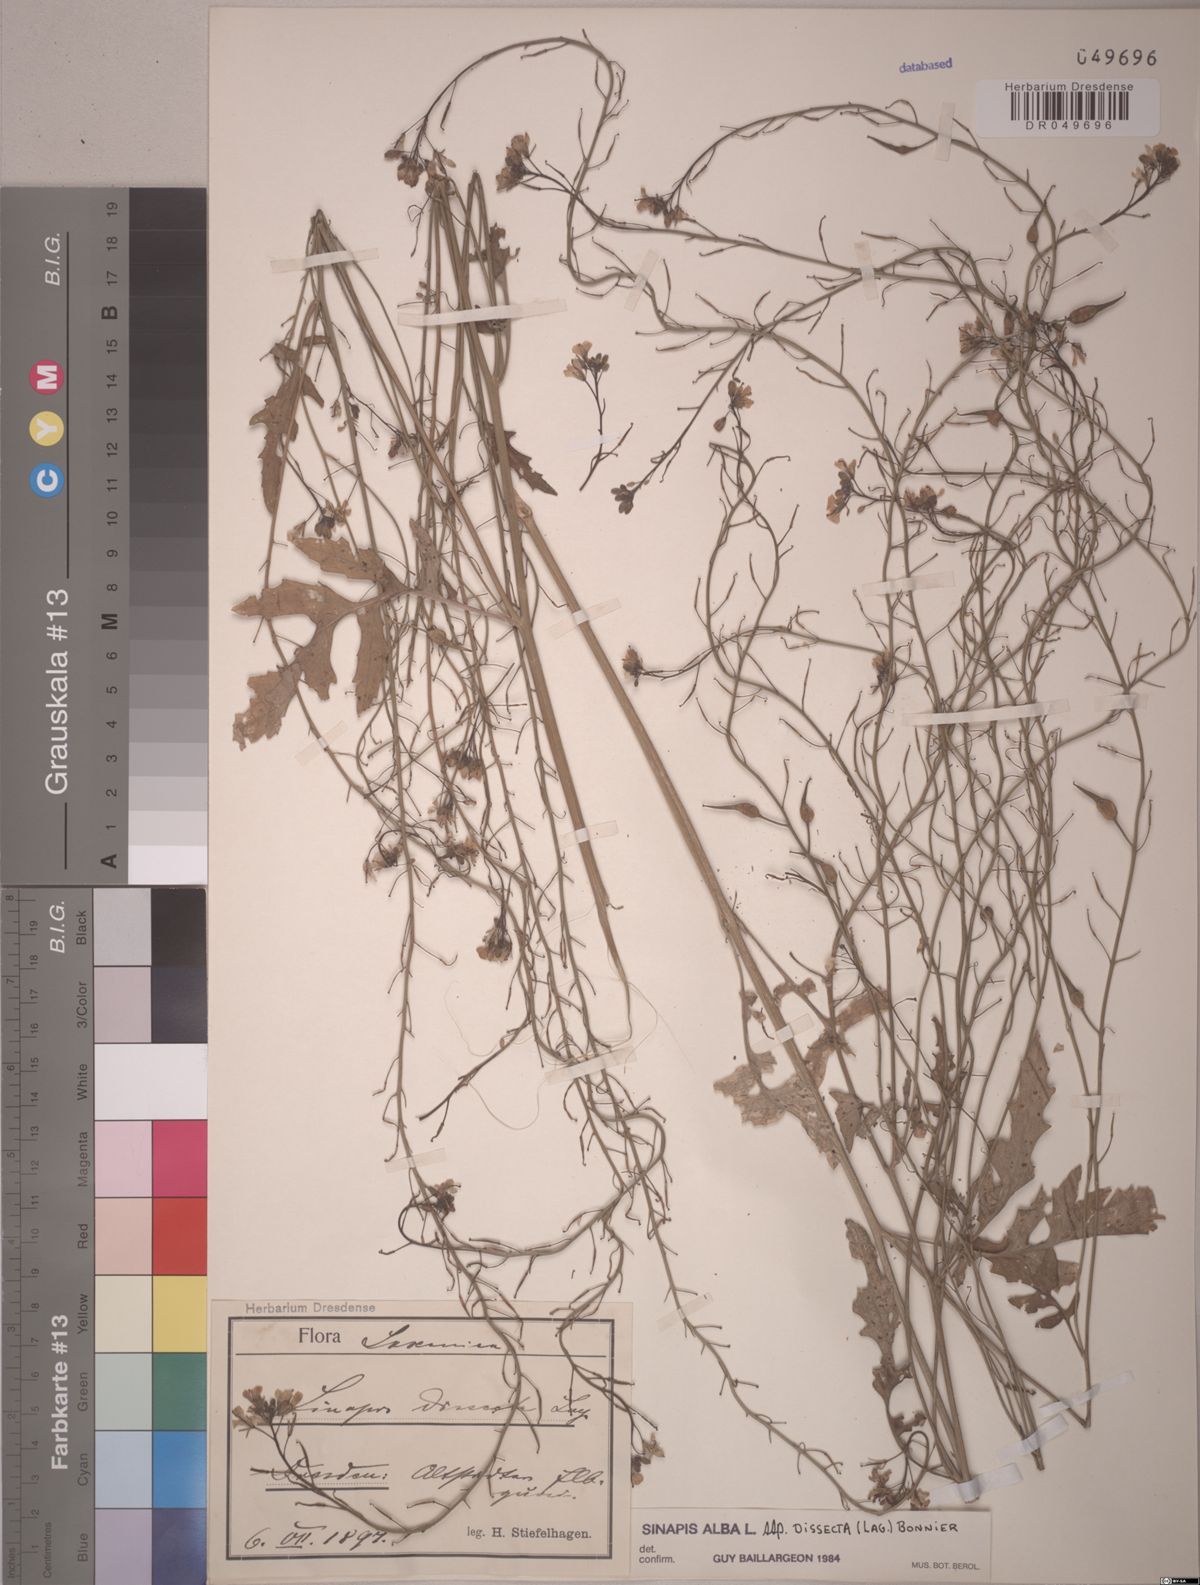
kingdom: Plantae
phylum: Tracheophyta
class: Magnoliopsida
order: Brassicales
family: Brassicaceae
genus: Sinapis
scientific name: Sinapis alba
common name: White mustard
